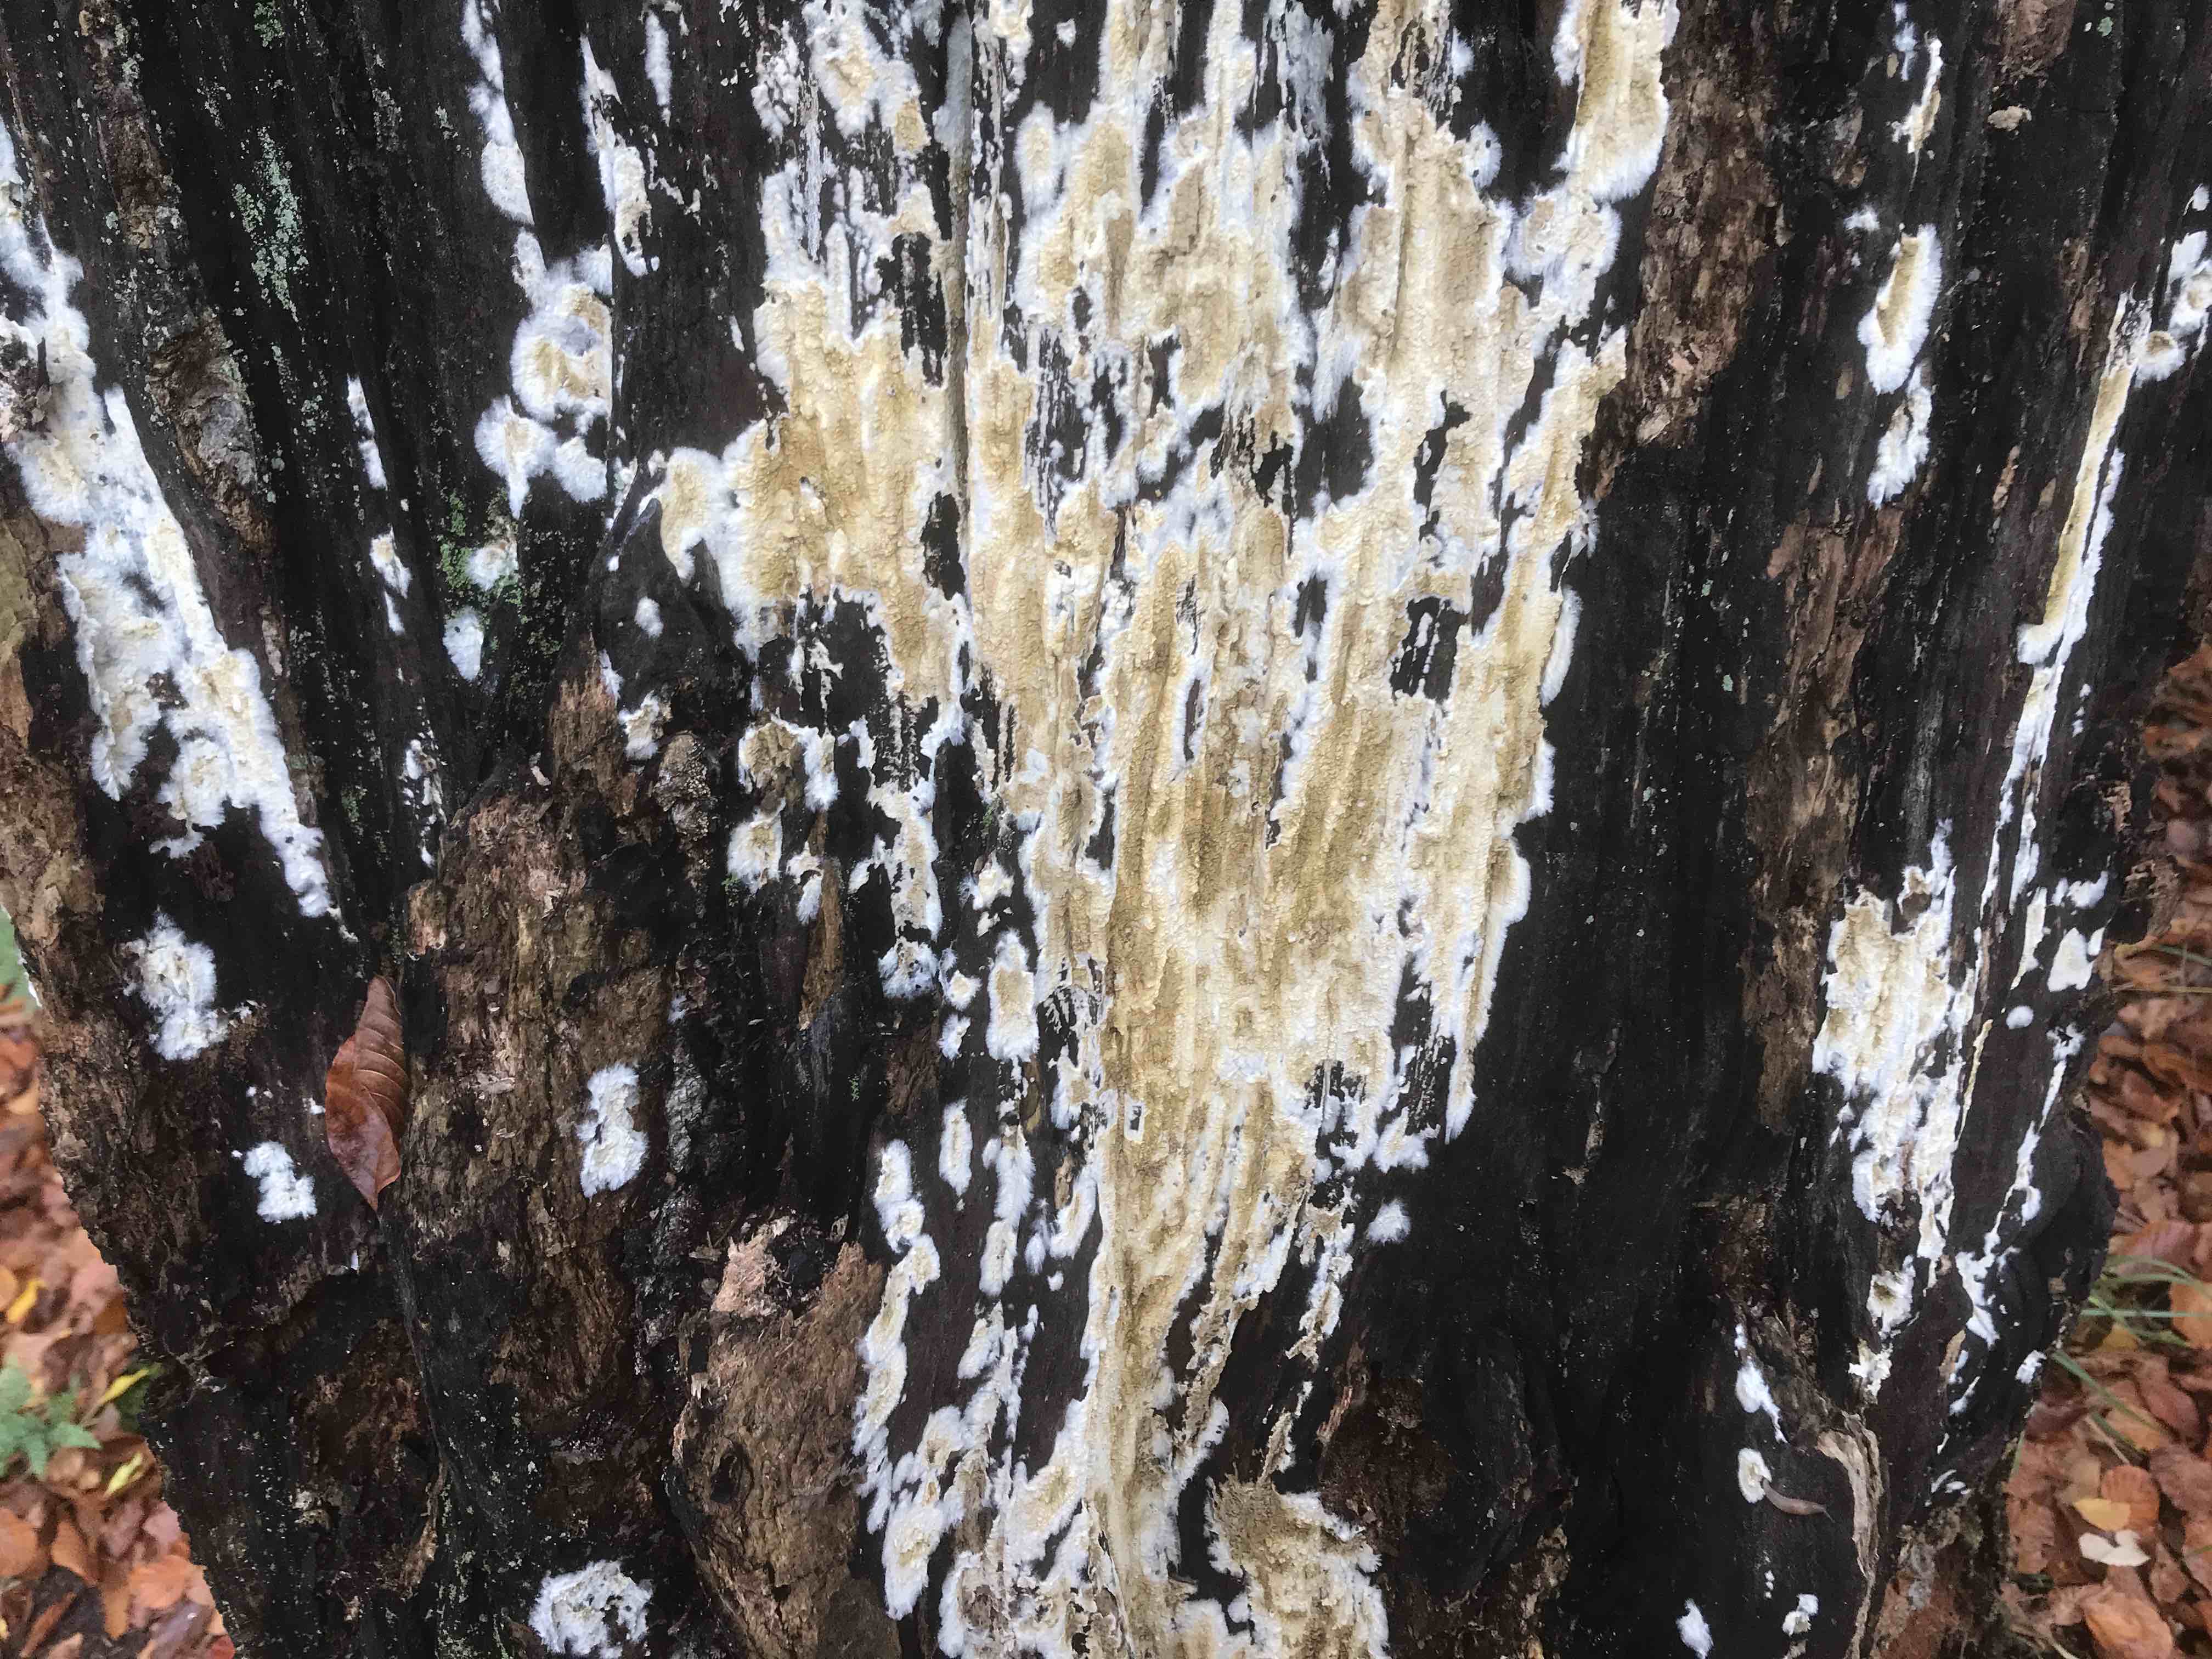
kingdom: Fungi
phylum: Basidiomycota
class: Agaricomycetes
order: Boletales
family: Coniophoraceae
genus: Coniophora
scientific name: Coniophora puteana
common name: gul tømmersvamp
